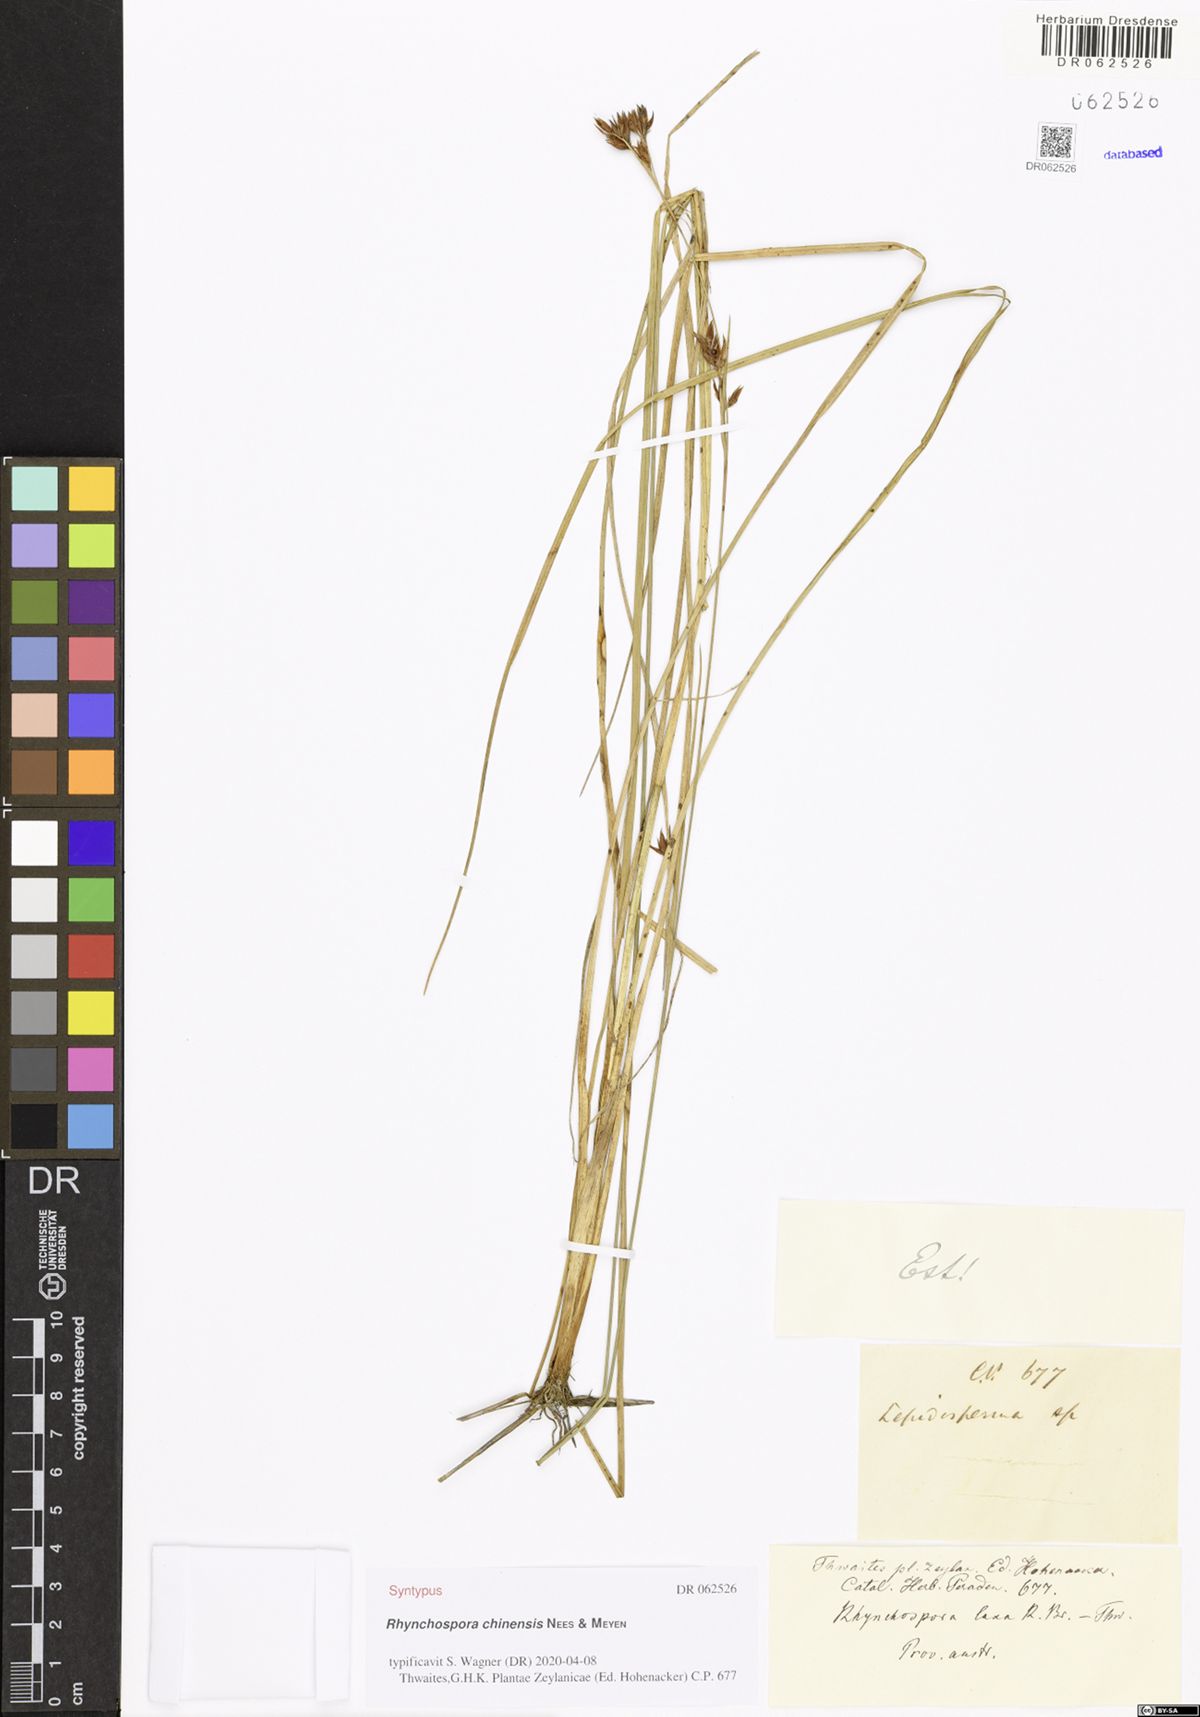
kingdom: Plantae
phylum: Tracheophyta
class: Liliopsida
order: Poales
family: Cyperaceae
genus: Rhynchospora
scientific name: Rhynchospora rugosa
